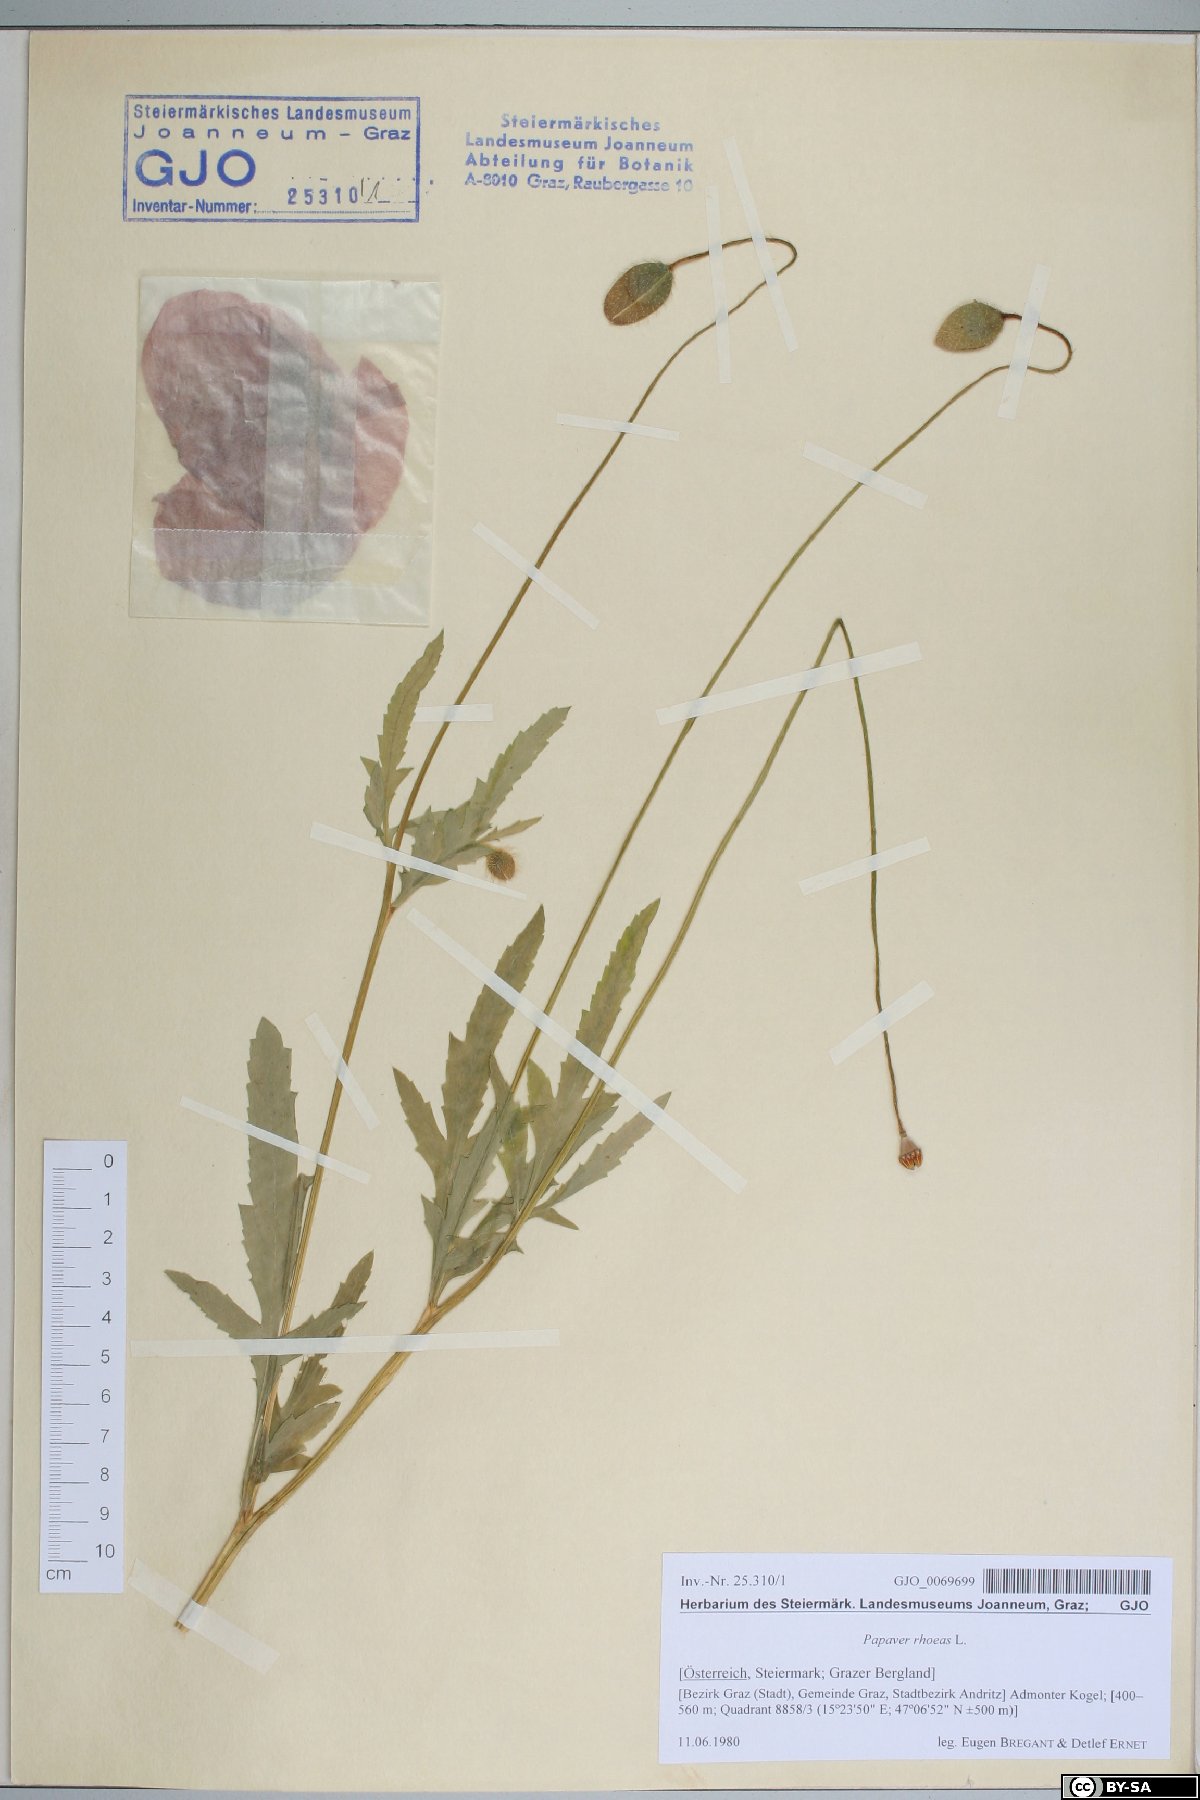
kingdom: Plantae
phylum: Tracheophyta
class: Magnoliopsida
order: Ranunculales
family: Papaveraceae
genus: Papaver
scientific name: Papaver rhoeas
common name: Corn poppy
